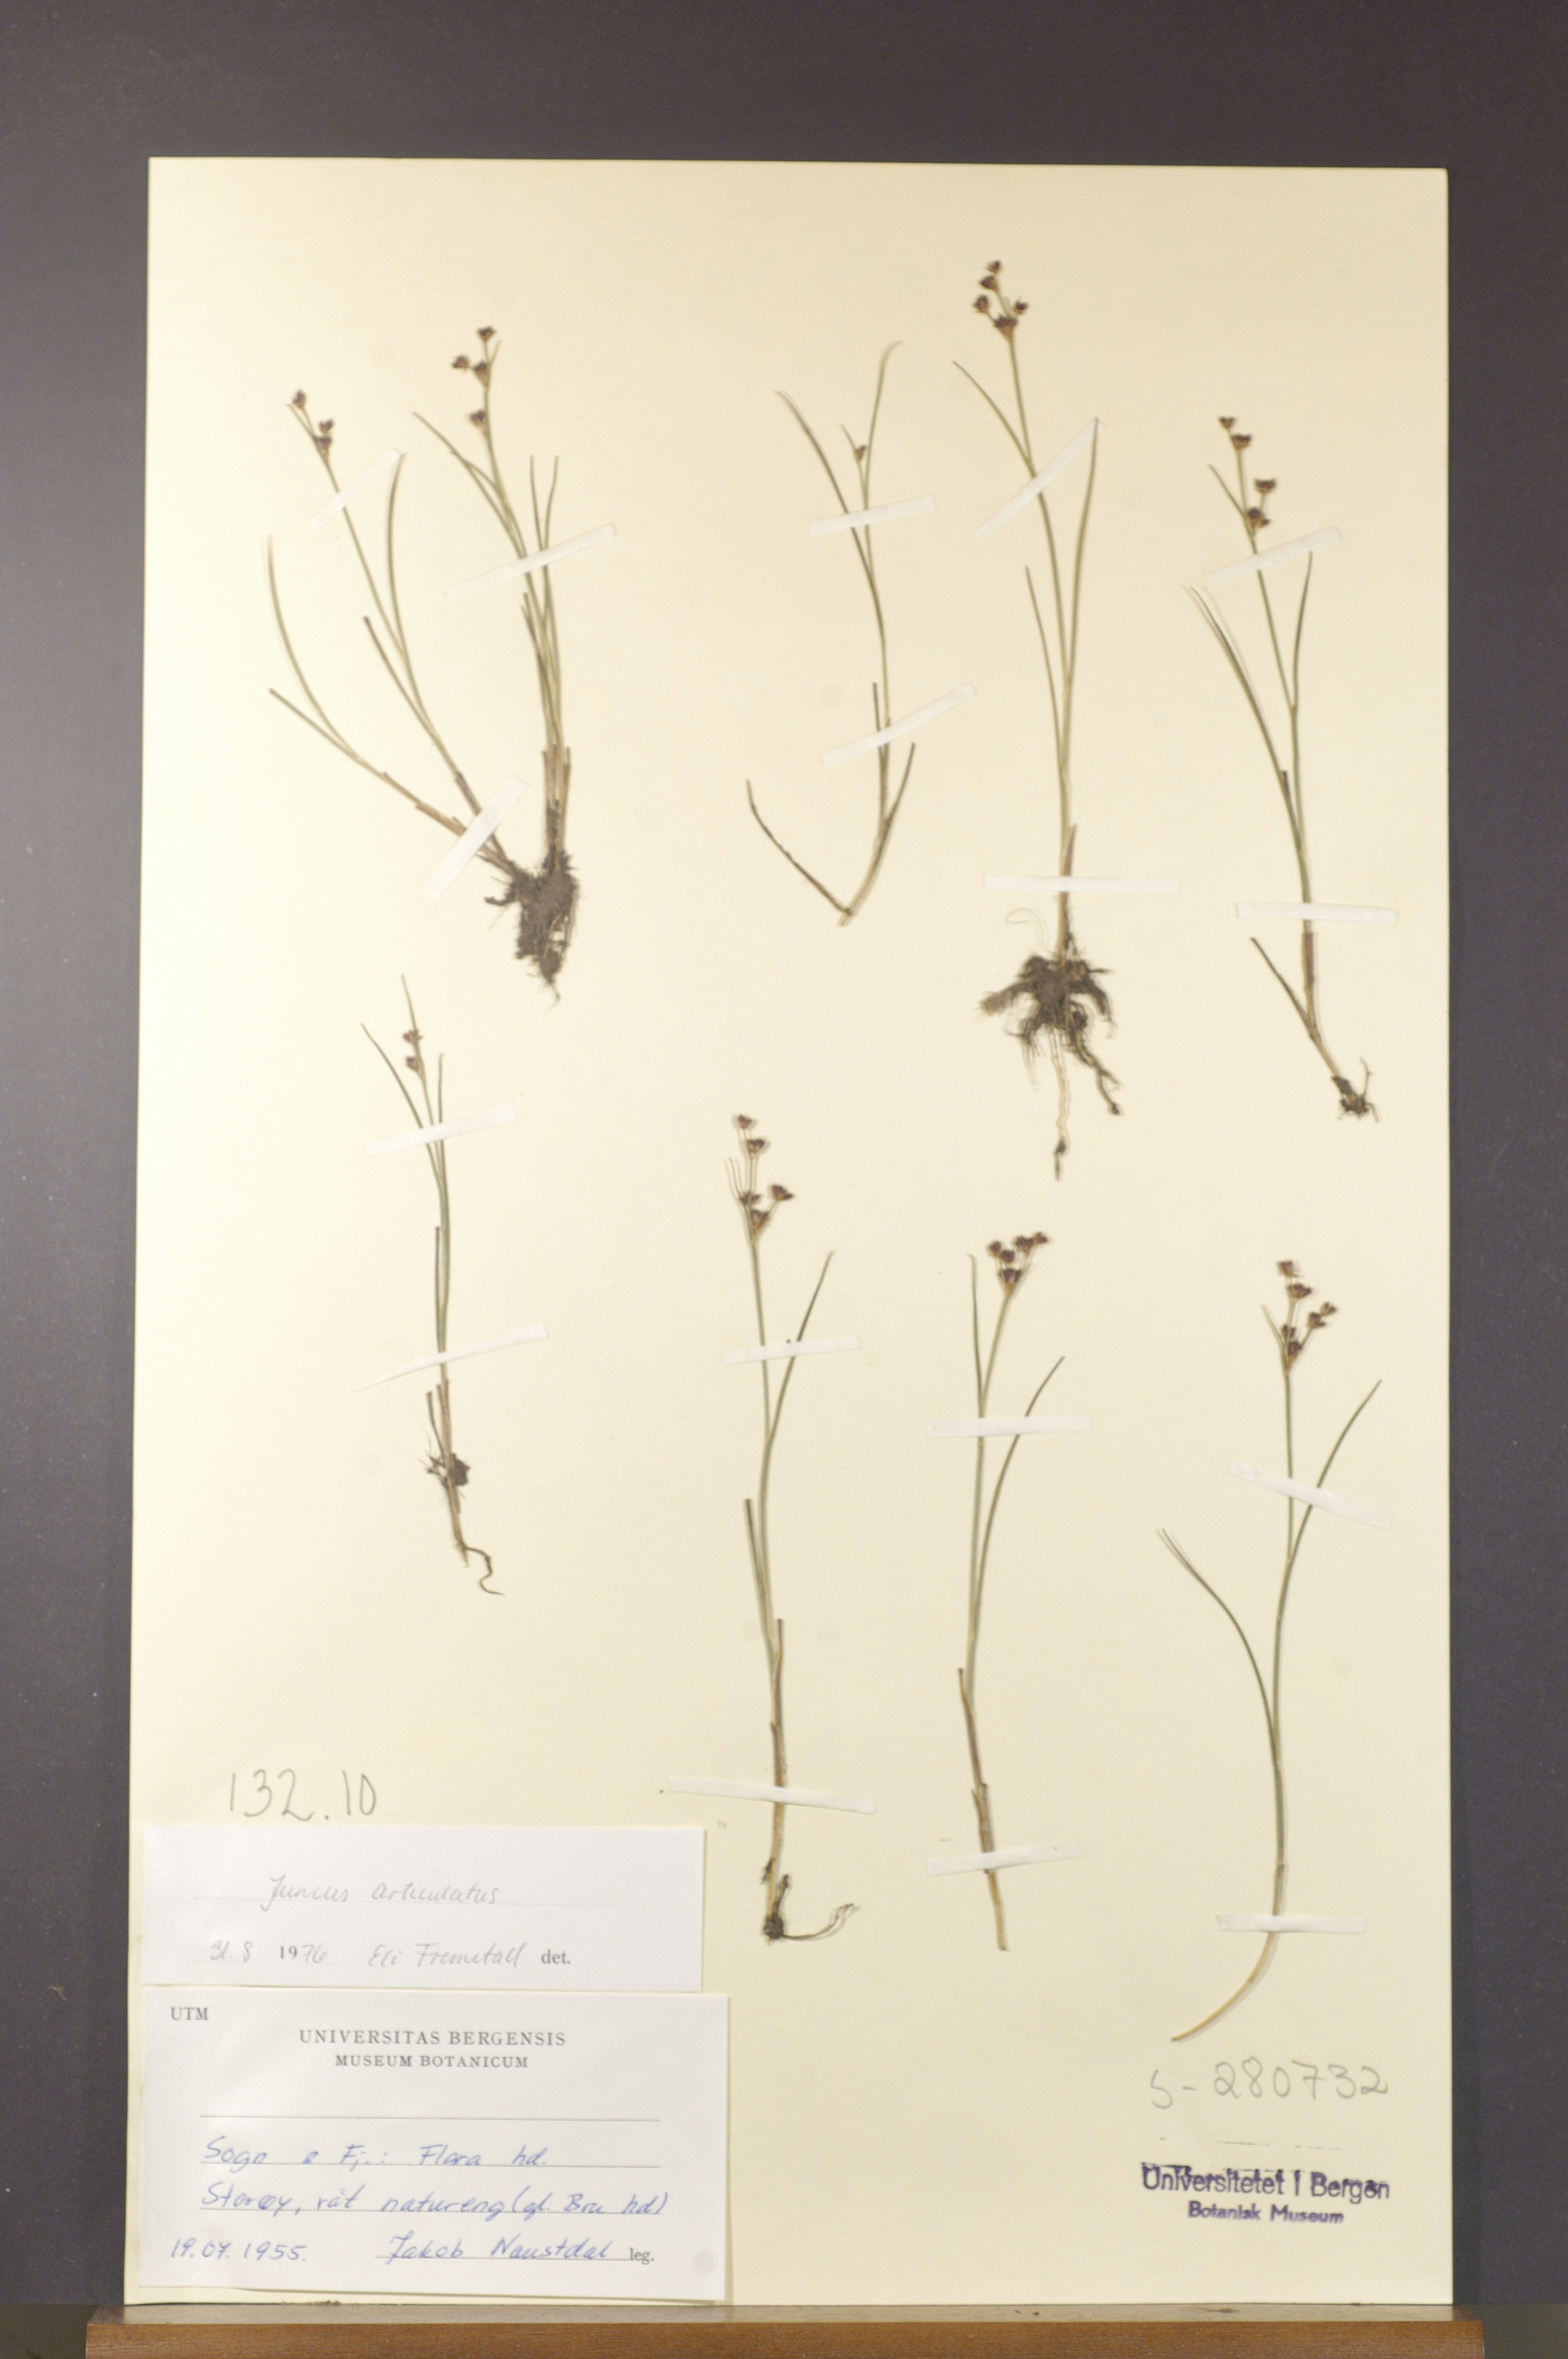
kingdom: Plantae
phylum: Tracheophyta
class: Liliopsida
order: Poales
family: Juncaceae
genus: Juncus
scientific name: Juncus articulatus
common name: Jointed rush
